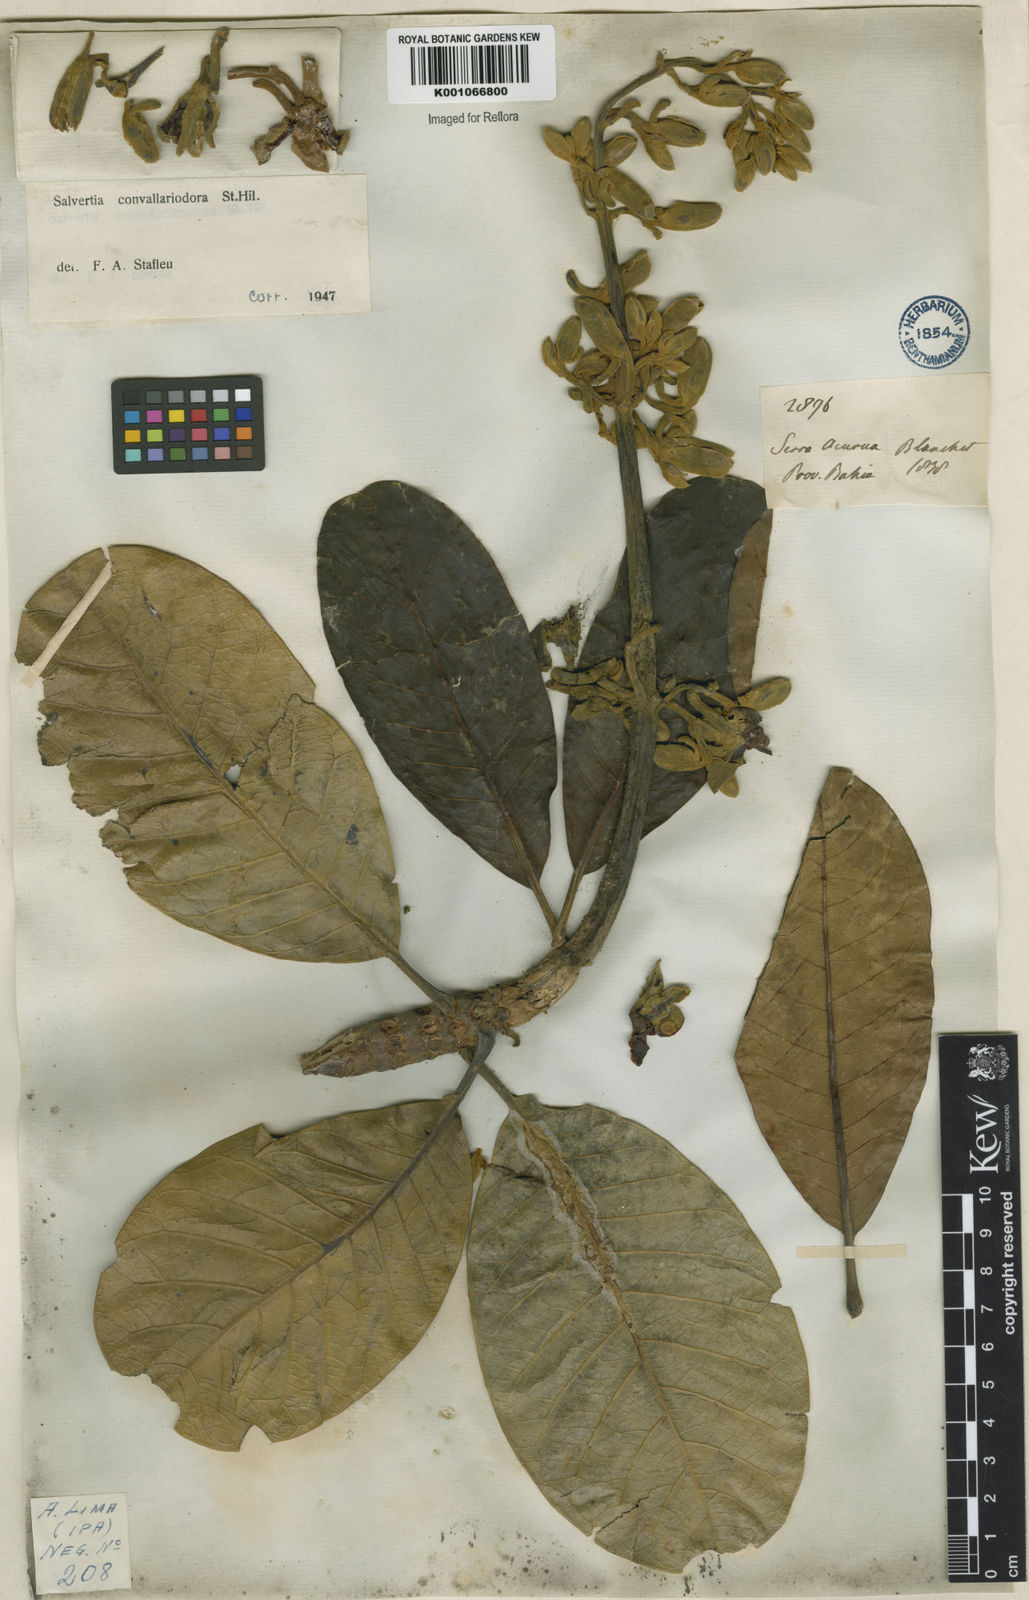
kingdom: Plantae
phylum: Tracheophyta
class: Magnoliopsida
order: Myrtales
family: Vochysiaceae
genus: Salvertia
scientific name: Salvertia convallariodora
